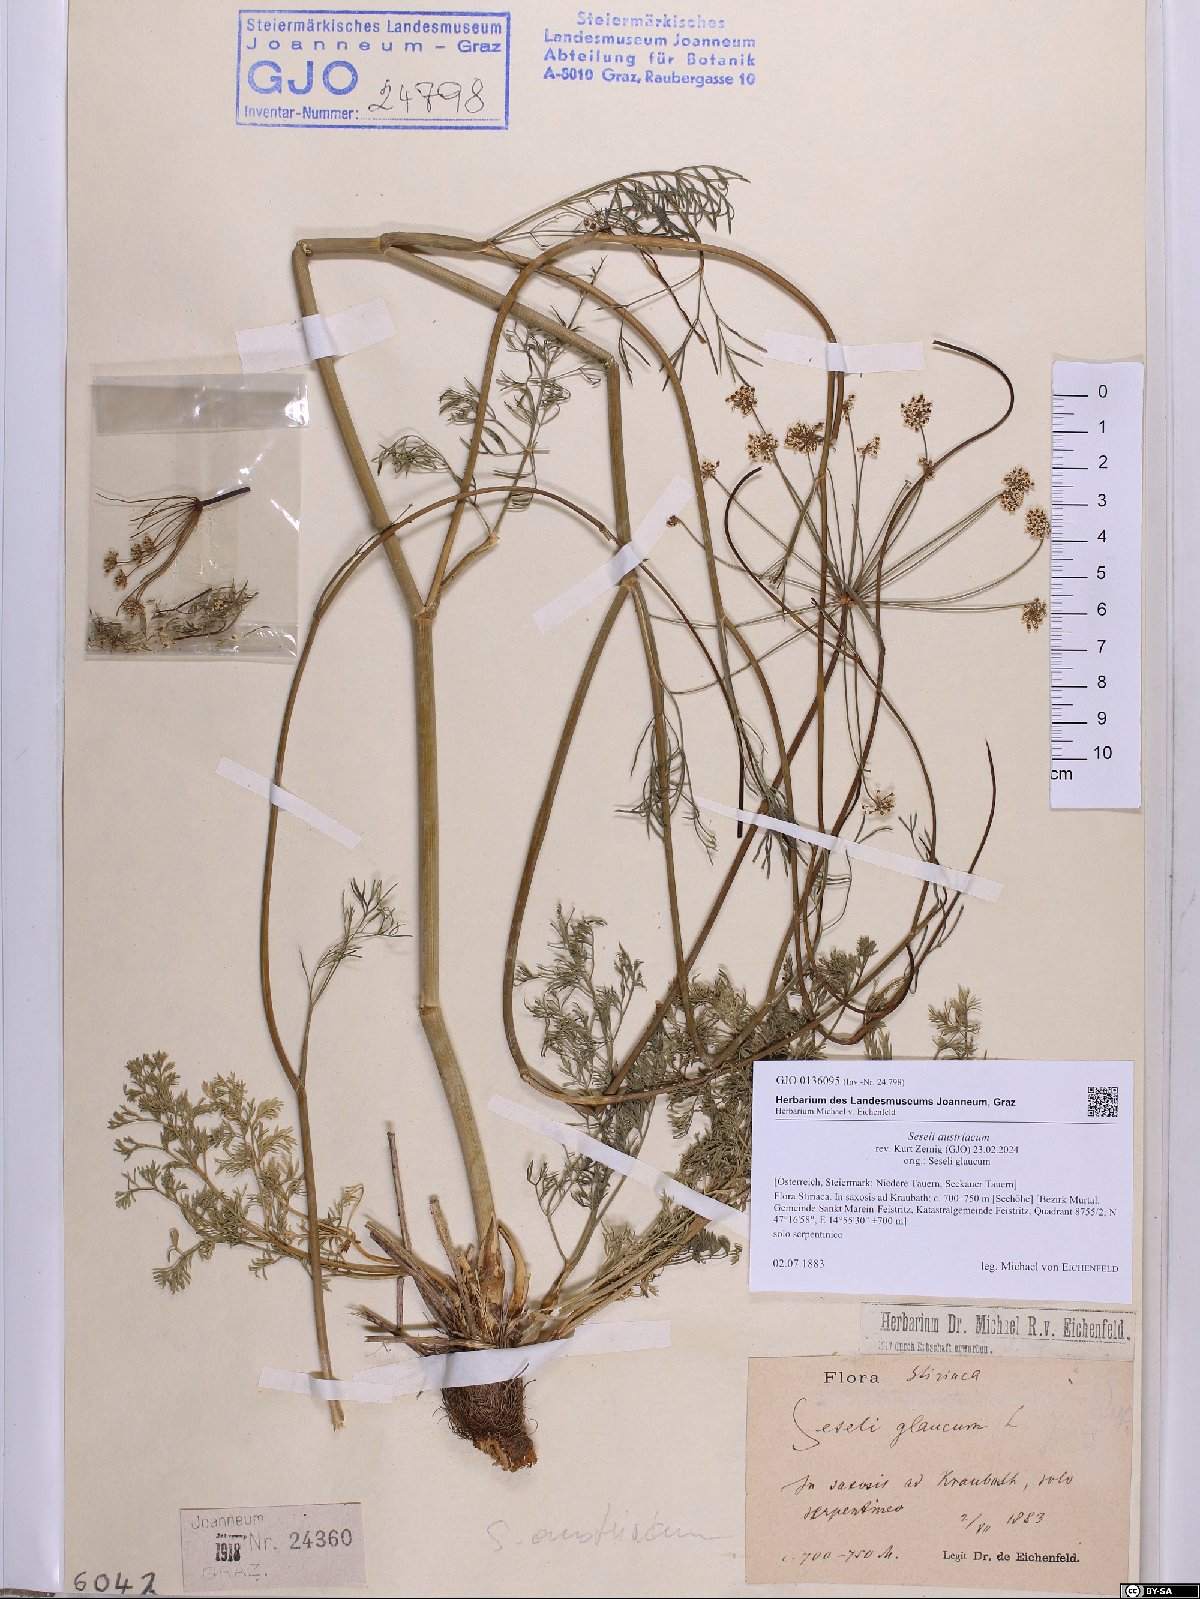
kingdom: Plantae
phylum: Tracheophyta
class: Magnoliopsida
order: Apiales
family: Apiaceae
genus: Seseli
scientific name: Seseli austriacum
